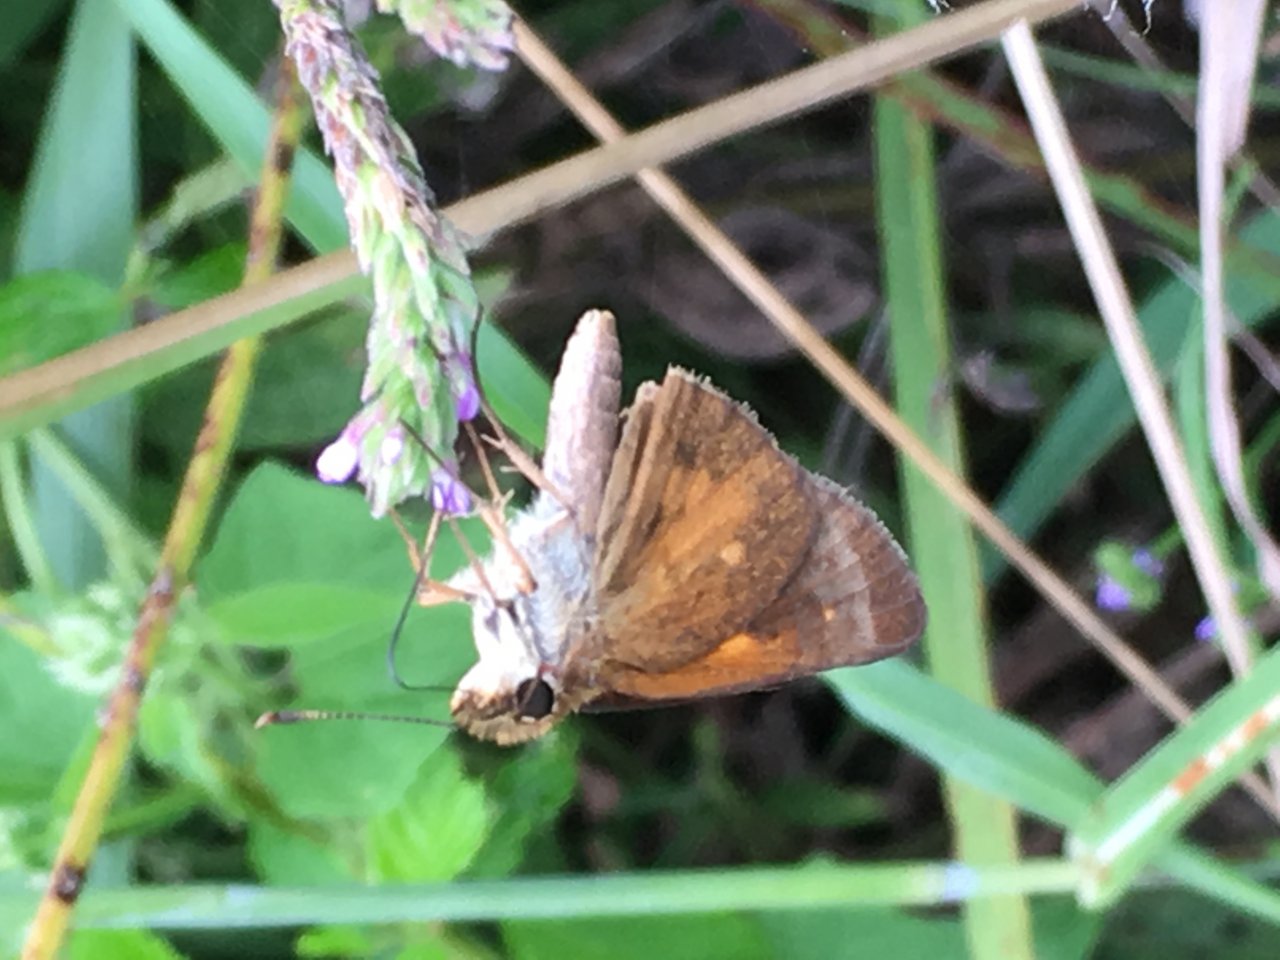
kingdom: Animalia
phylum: Arthropoda
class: Insecta
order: Lepidoptera
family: Hesperiidae
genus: Poanes
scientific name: Poanes viator
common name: Broad-winged Skipper
